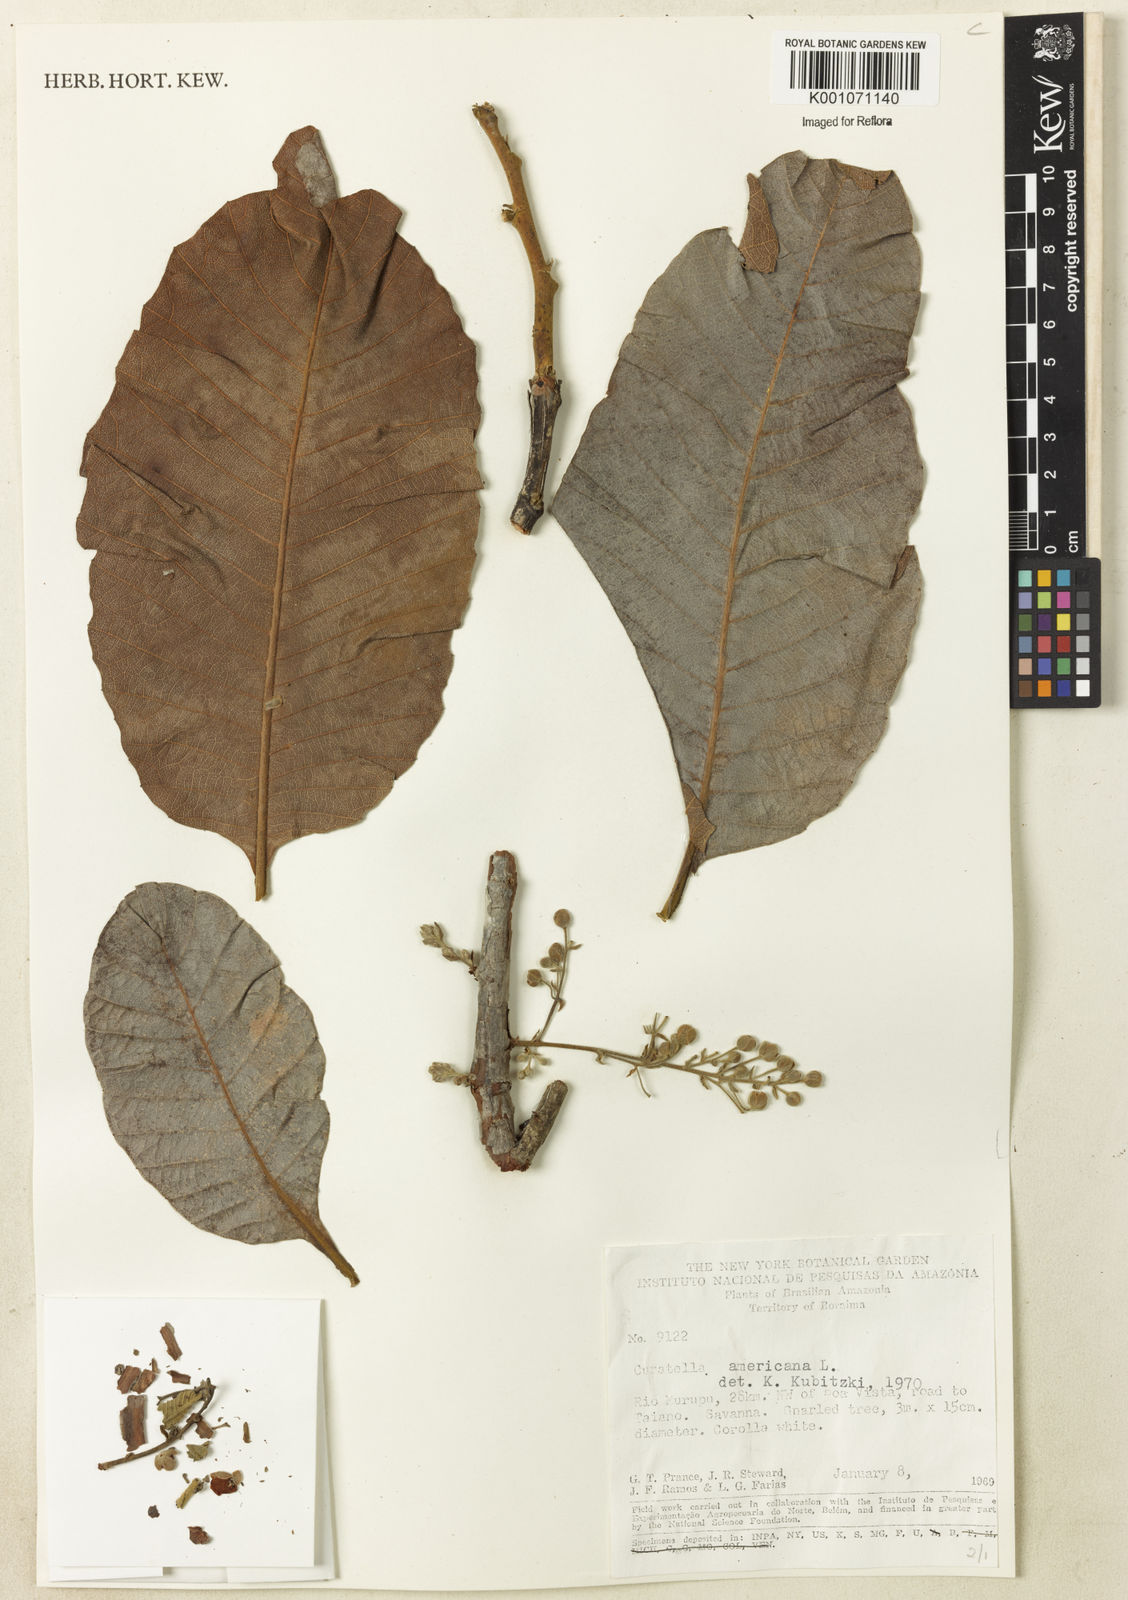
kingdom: Plantae
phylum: Tracheophyta
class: Magnoliopsida
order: Dilleniales
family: Dilleniaceae
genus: Curatella
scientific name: Curatella americana
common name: Sandpaper tree
